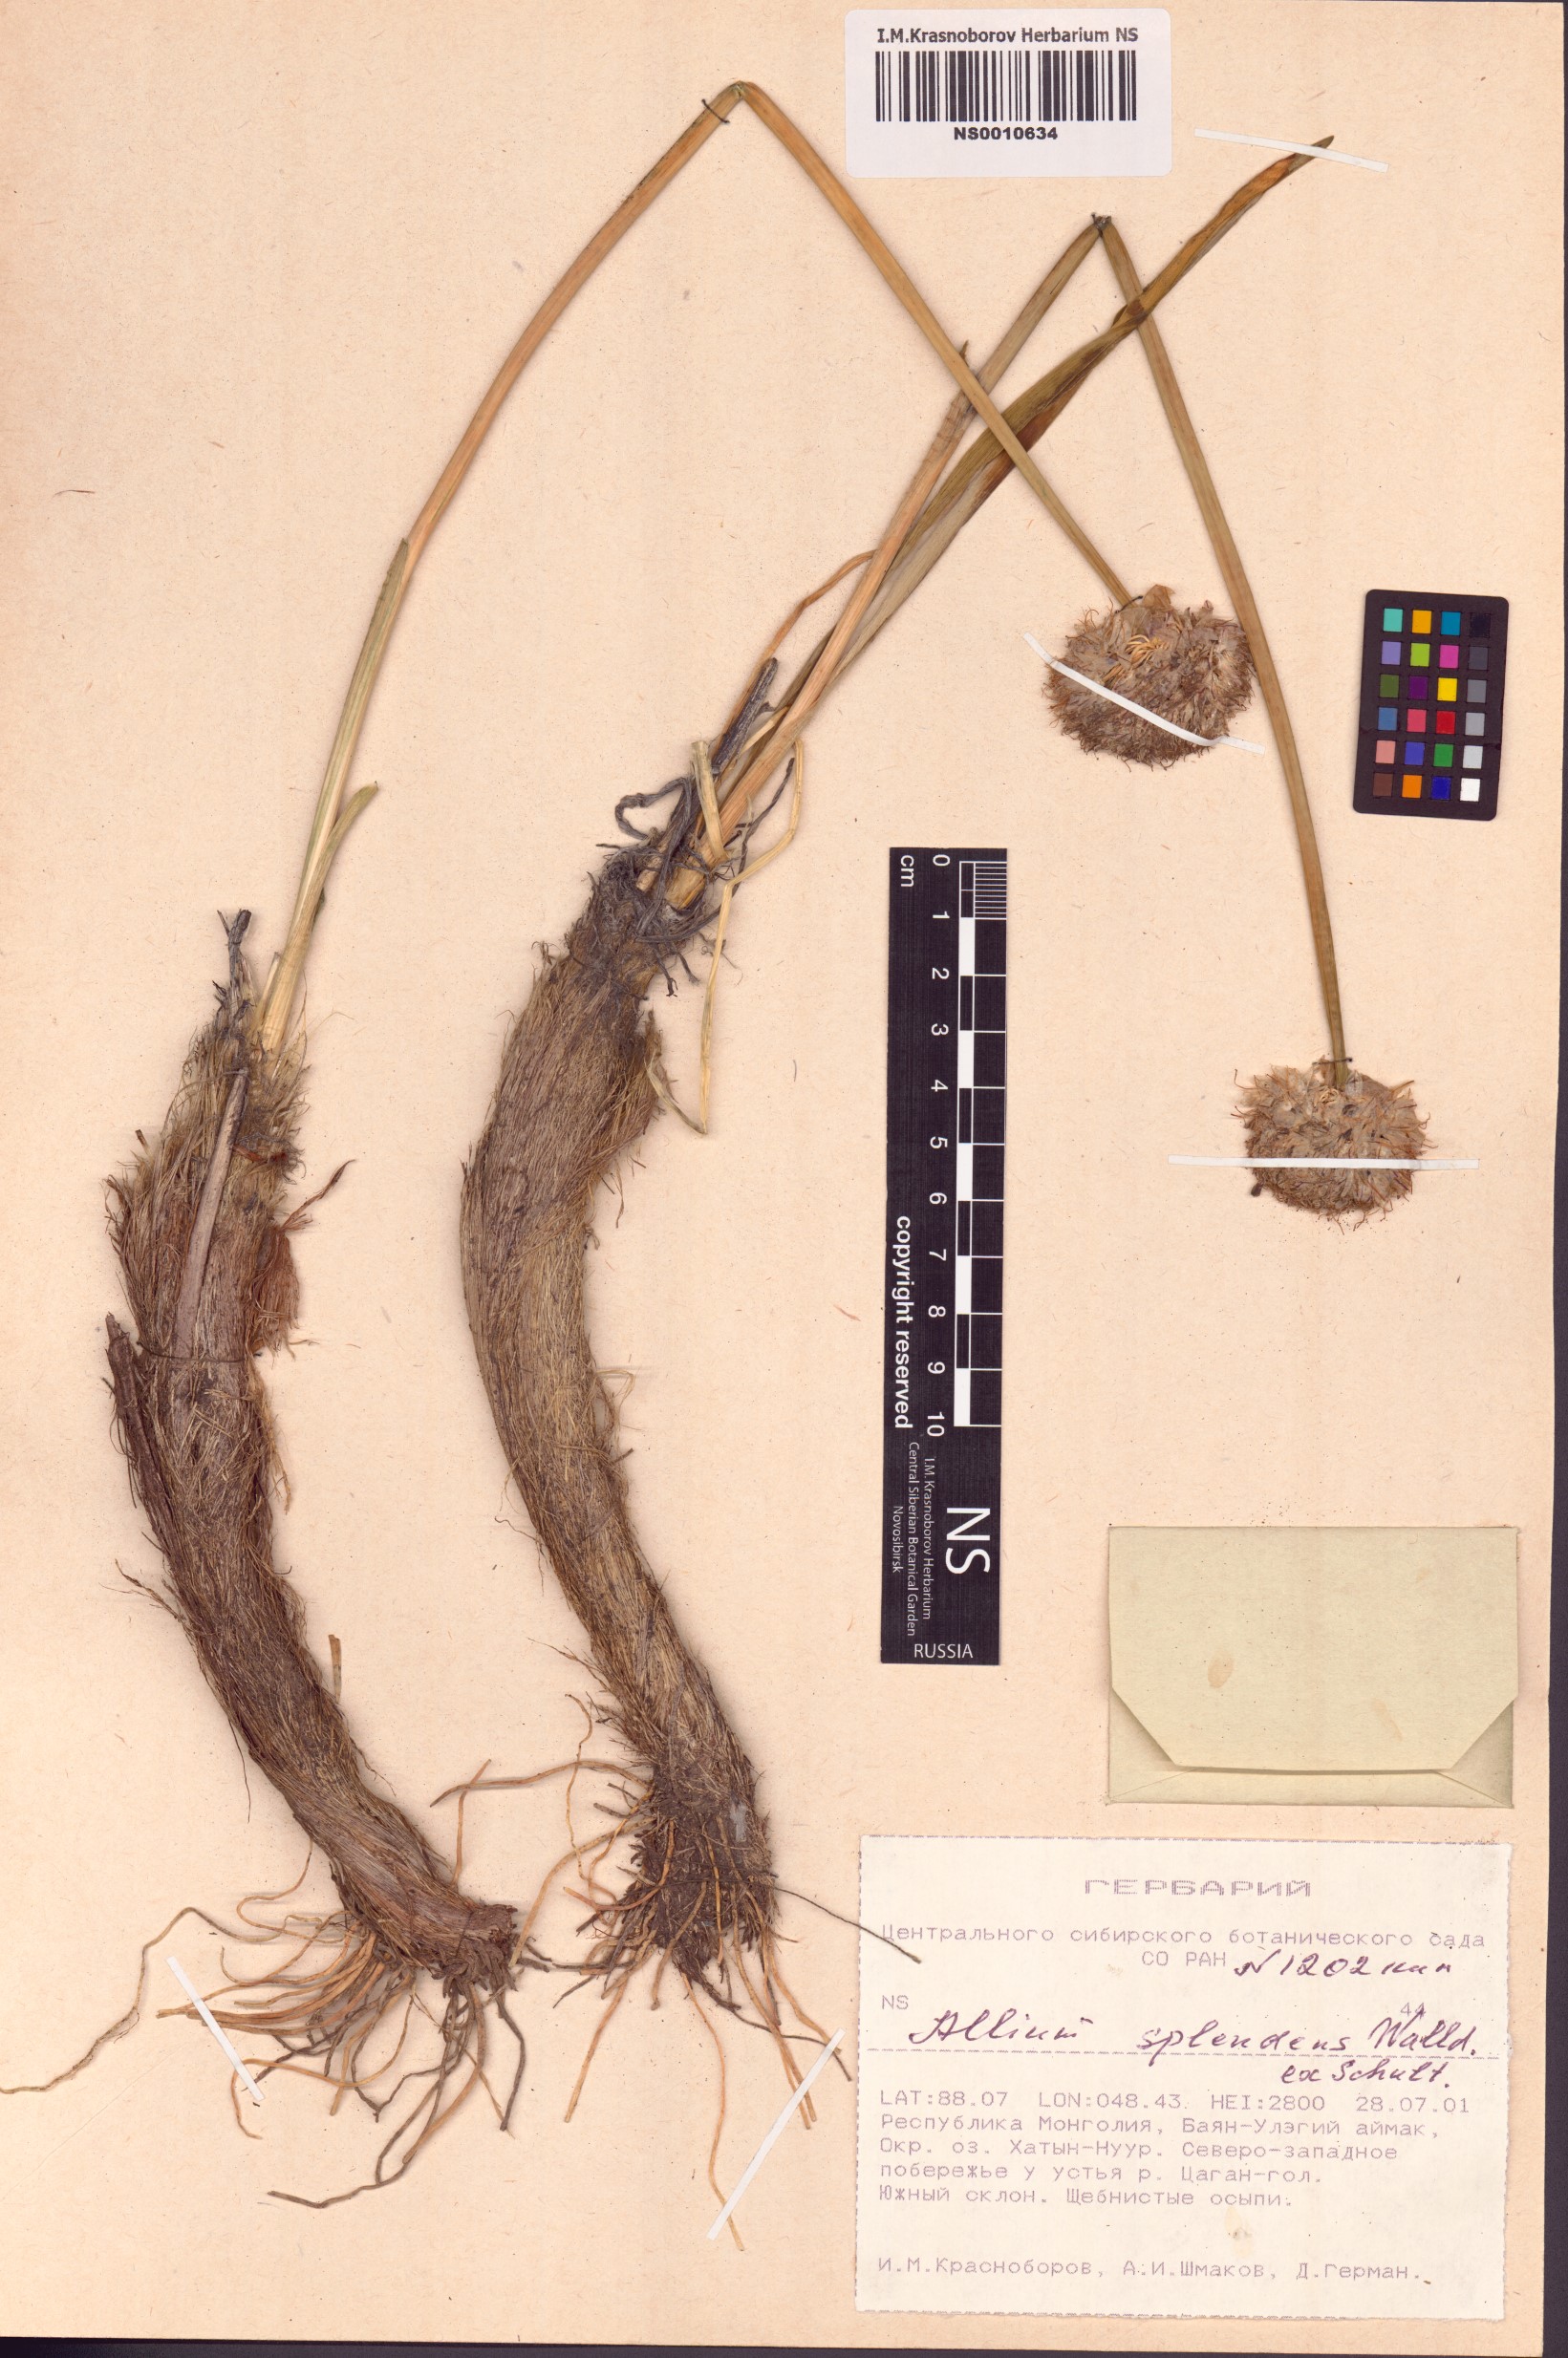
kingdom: Plantae
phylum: Tracheophyta
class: Liliopsida
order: Asparagales
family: Amaryllidaceae
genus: Allium
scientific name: Allium splendens
